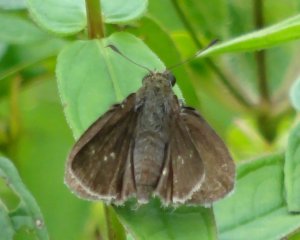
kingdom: Animalia
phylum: Arthropoda
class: Insecta
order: Lepidoptera
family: Hesperiidae
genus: Euphyes
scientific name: Euphyes vestris
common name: Dun Skipper
